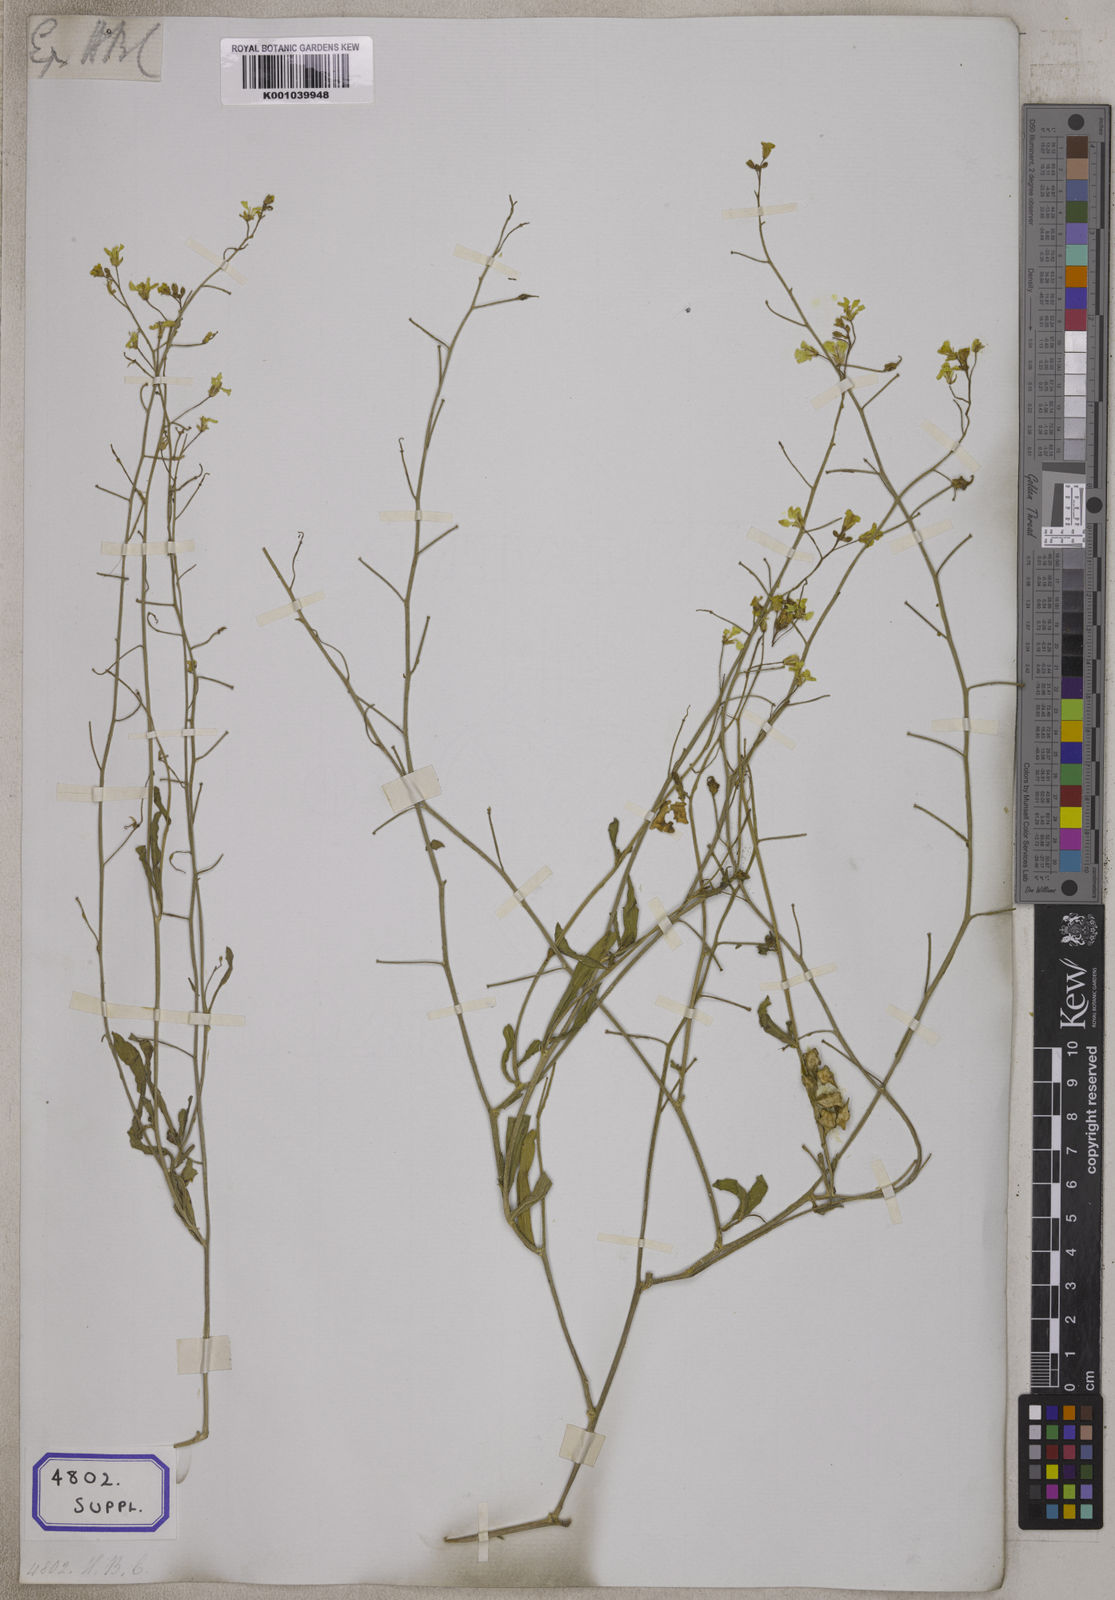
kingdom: Plantae
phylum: Tracheophyta
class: Magnoliopsida
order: Brassicales
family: Brassicaceae
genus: Rorippa
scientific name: Rorippa cochlearioides
